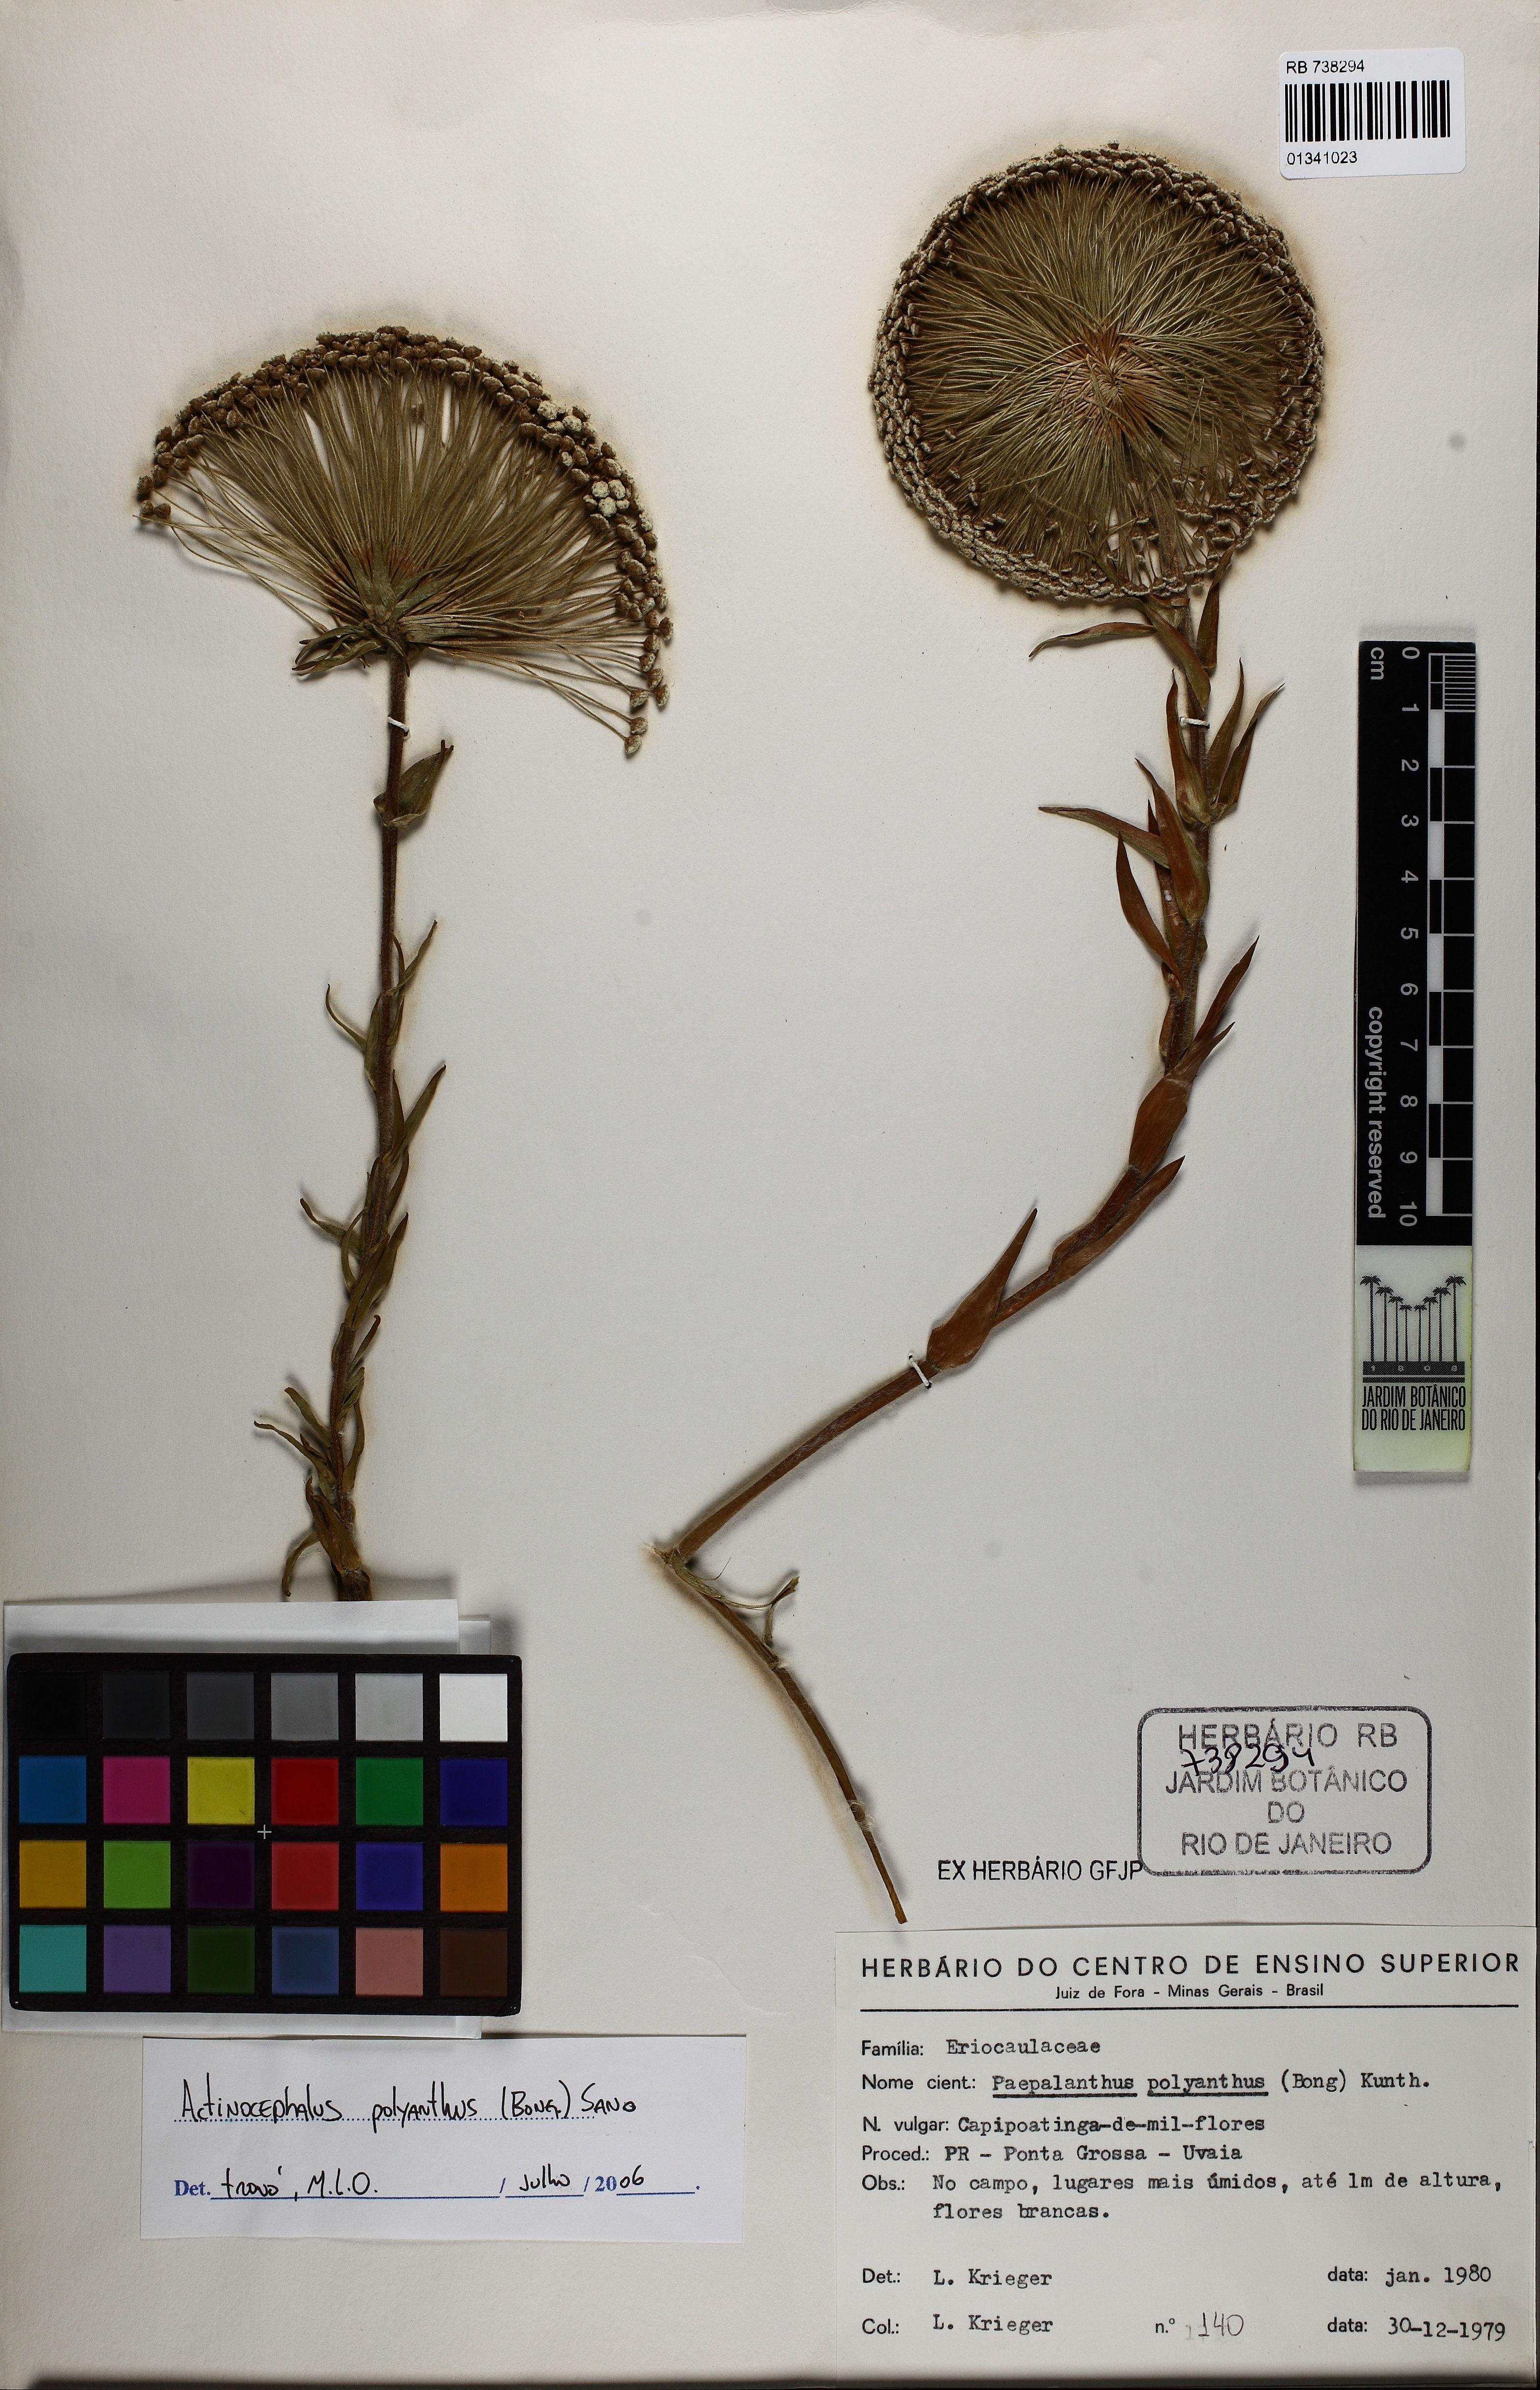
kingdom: Plantae
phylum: Tracheophyta
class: Liliopsida
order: Poales
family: Eriocaulaceae
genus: Paepalanthus
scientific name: Paepalanthus polyanthus
